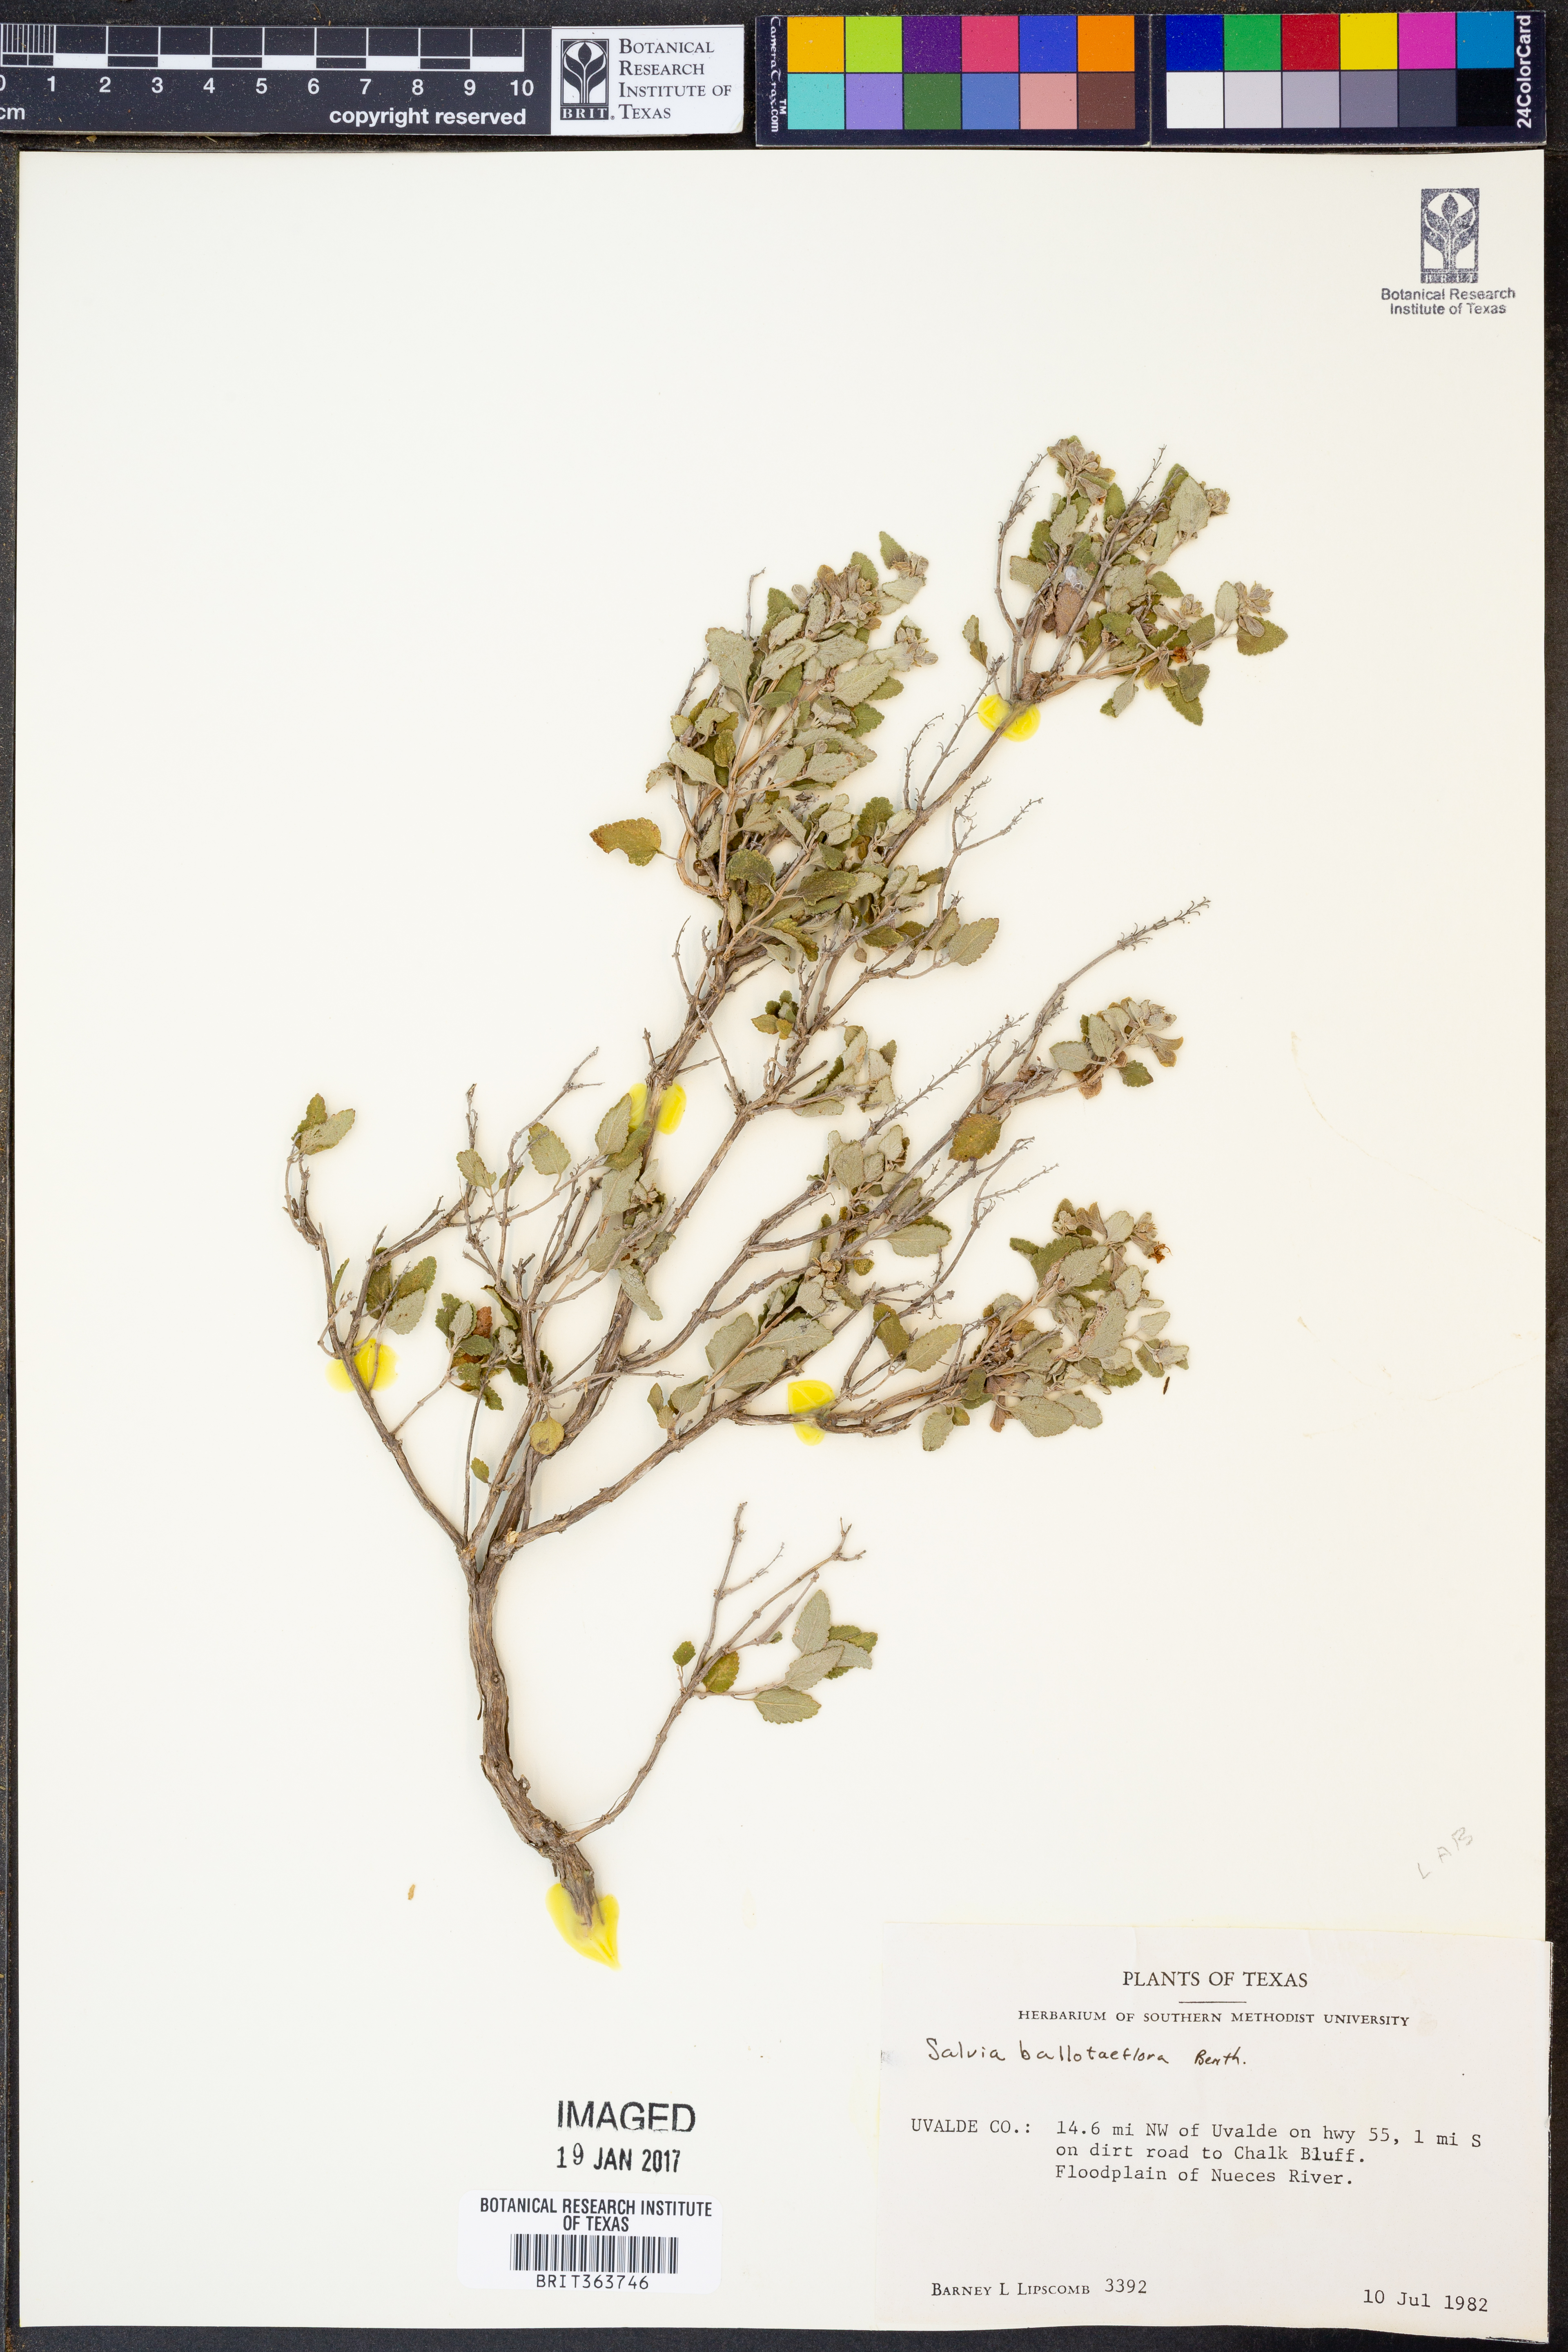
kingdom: Plantae
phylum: Tracheophyta
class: Magnoliopsida
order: Lamiales
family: Lamiaceae
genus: Salvia
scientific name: Salvia ballotiflora
